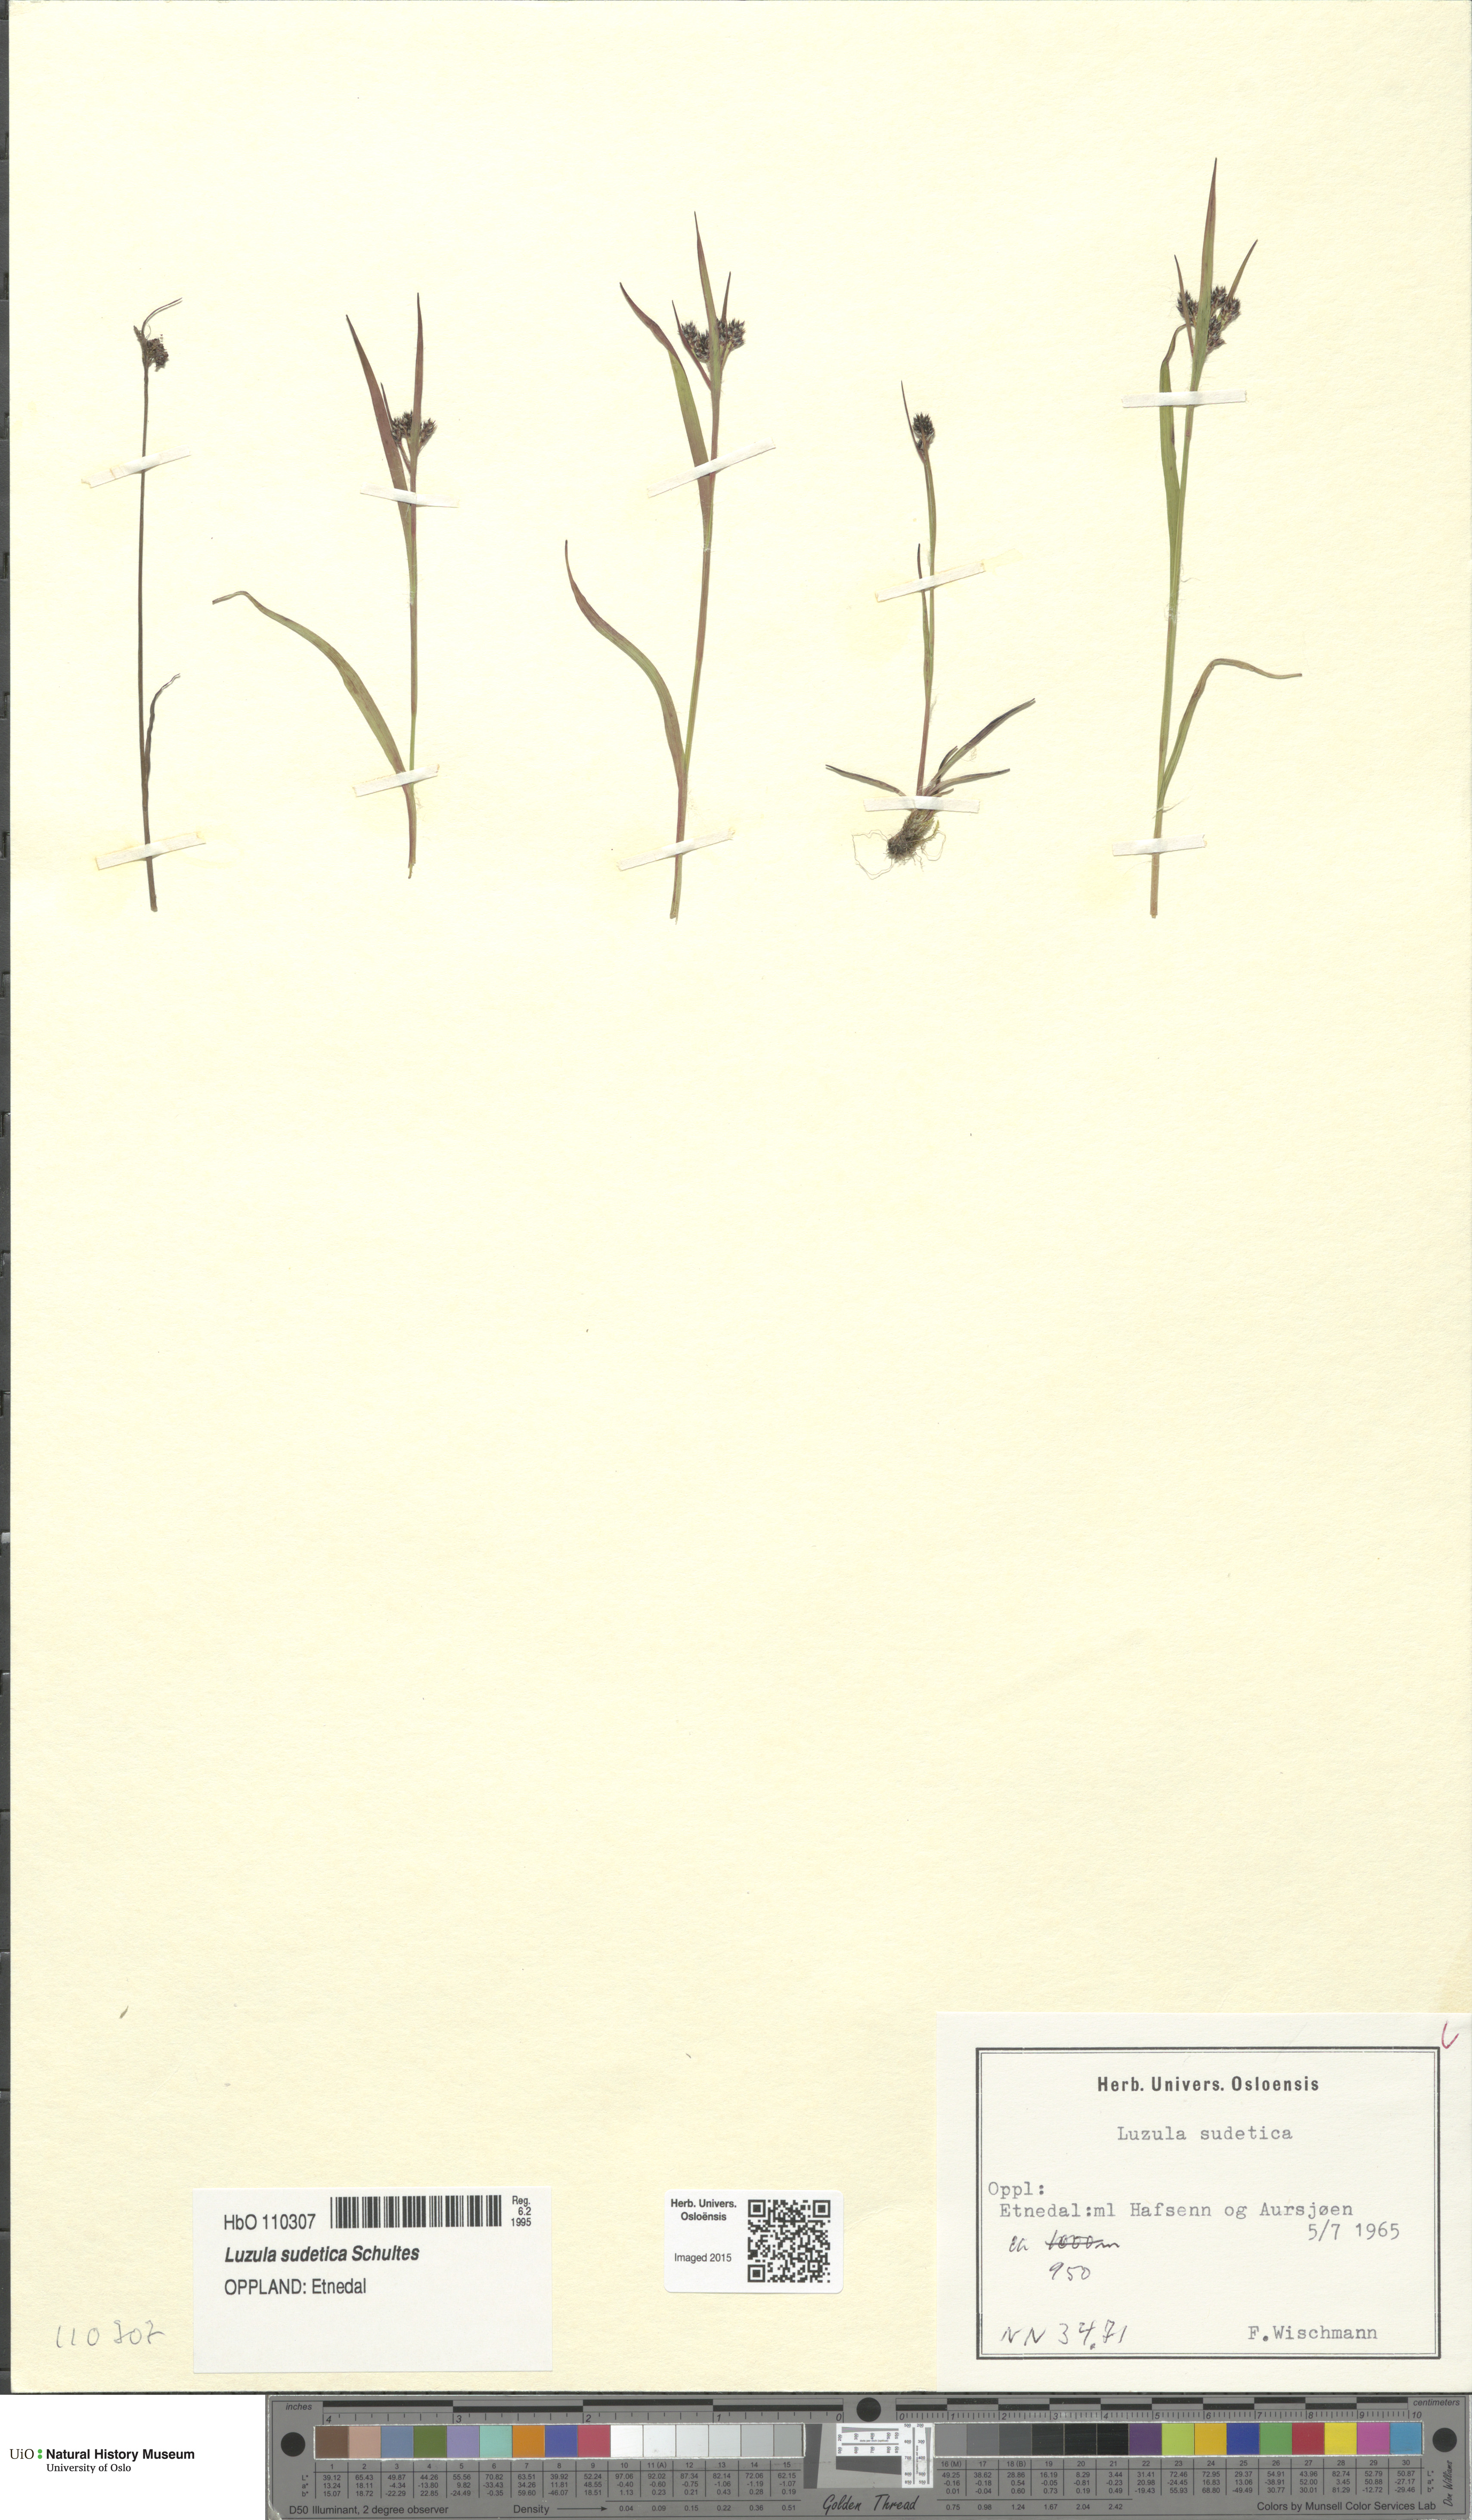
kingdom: Plantae
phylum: Tracheophyta
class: Liliopsida
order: Poales
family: Juncaceae
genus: Luzula
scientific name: Luzula sudetica
